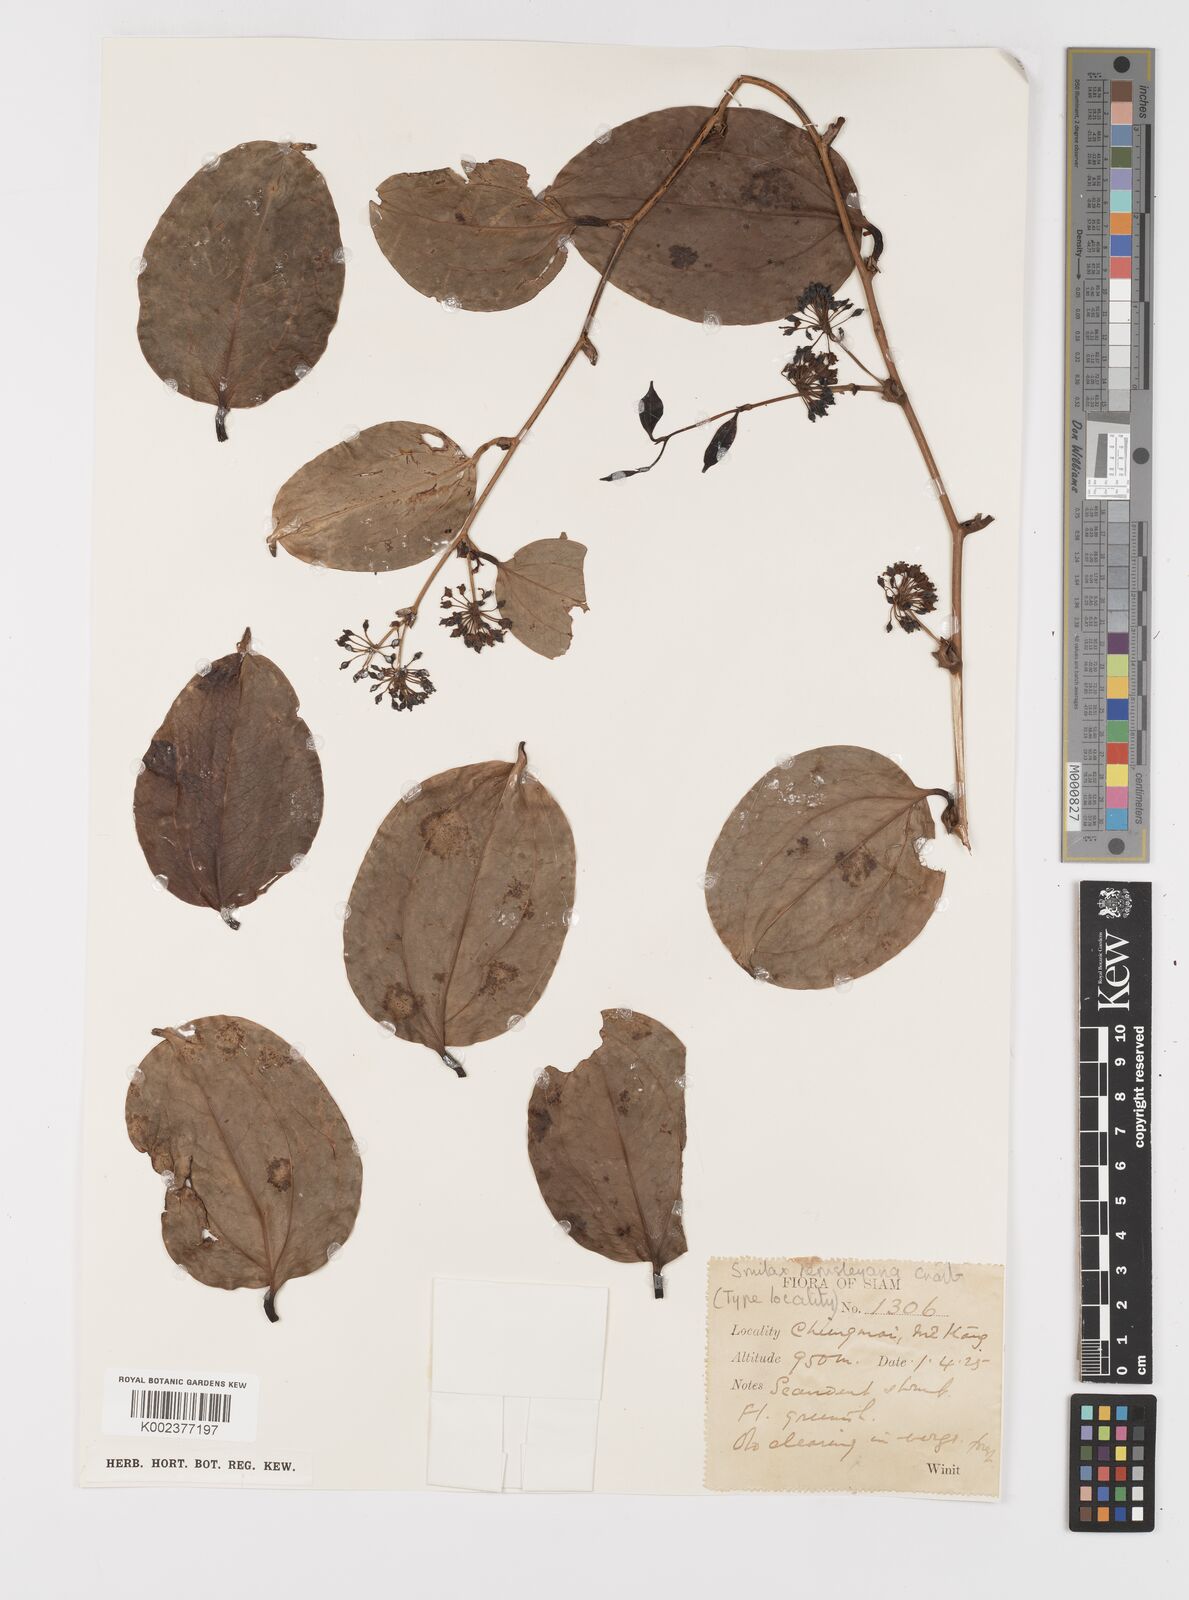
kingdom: Plantae
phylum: Tracheophyta
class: Liliopsida
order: Liliales
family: Smilacaceae
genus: Smilax
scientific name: Smilax hemsleyana
